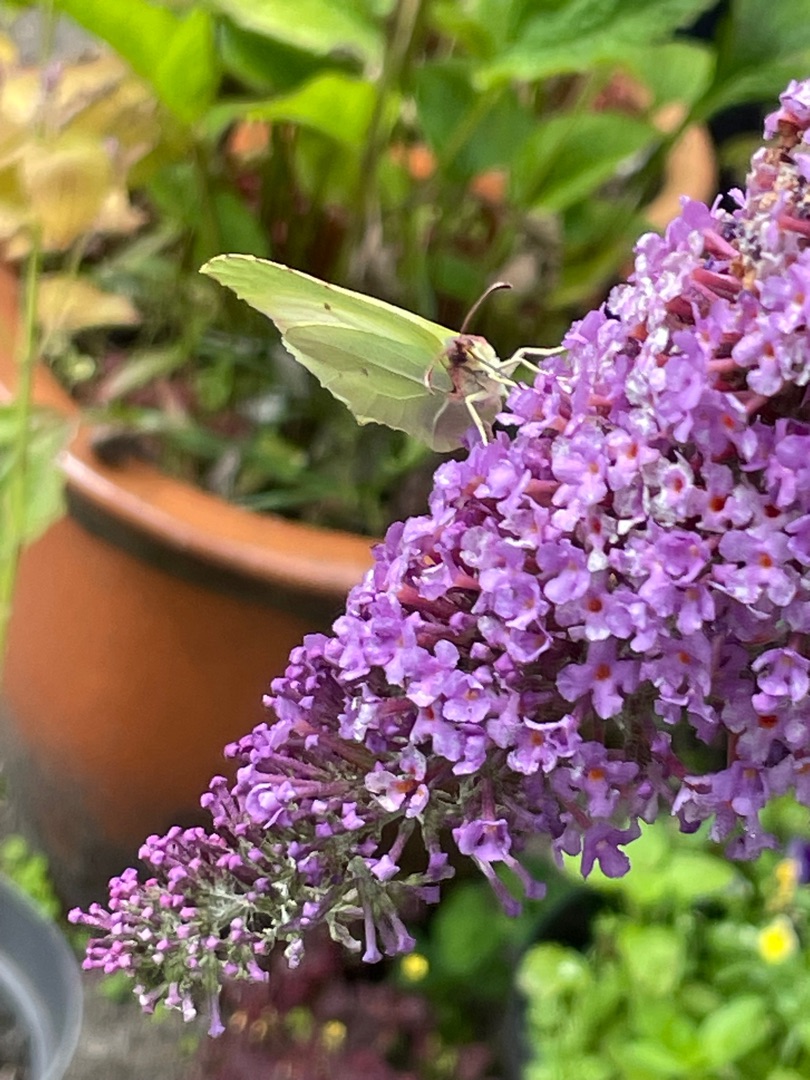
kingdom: Animalia
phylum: Arthropoda
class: Insecta
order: Lepidoptera
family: Pieridae
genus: Gonepteryx
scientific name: Gonepteryx rhamni
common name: Citronsommerfugl
